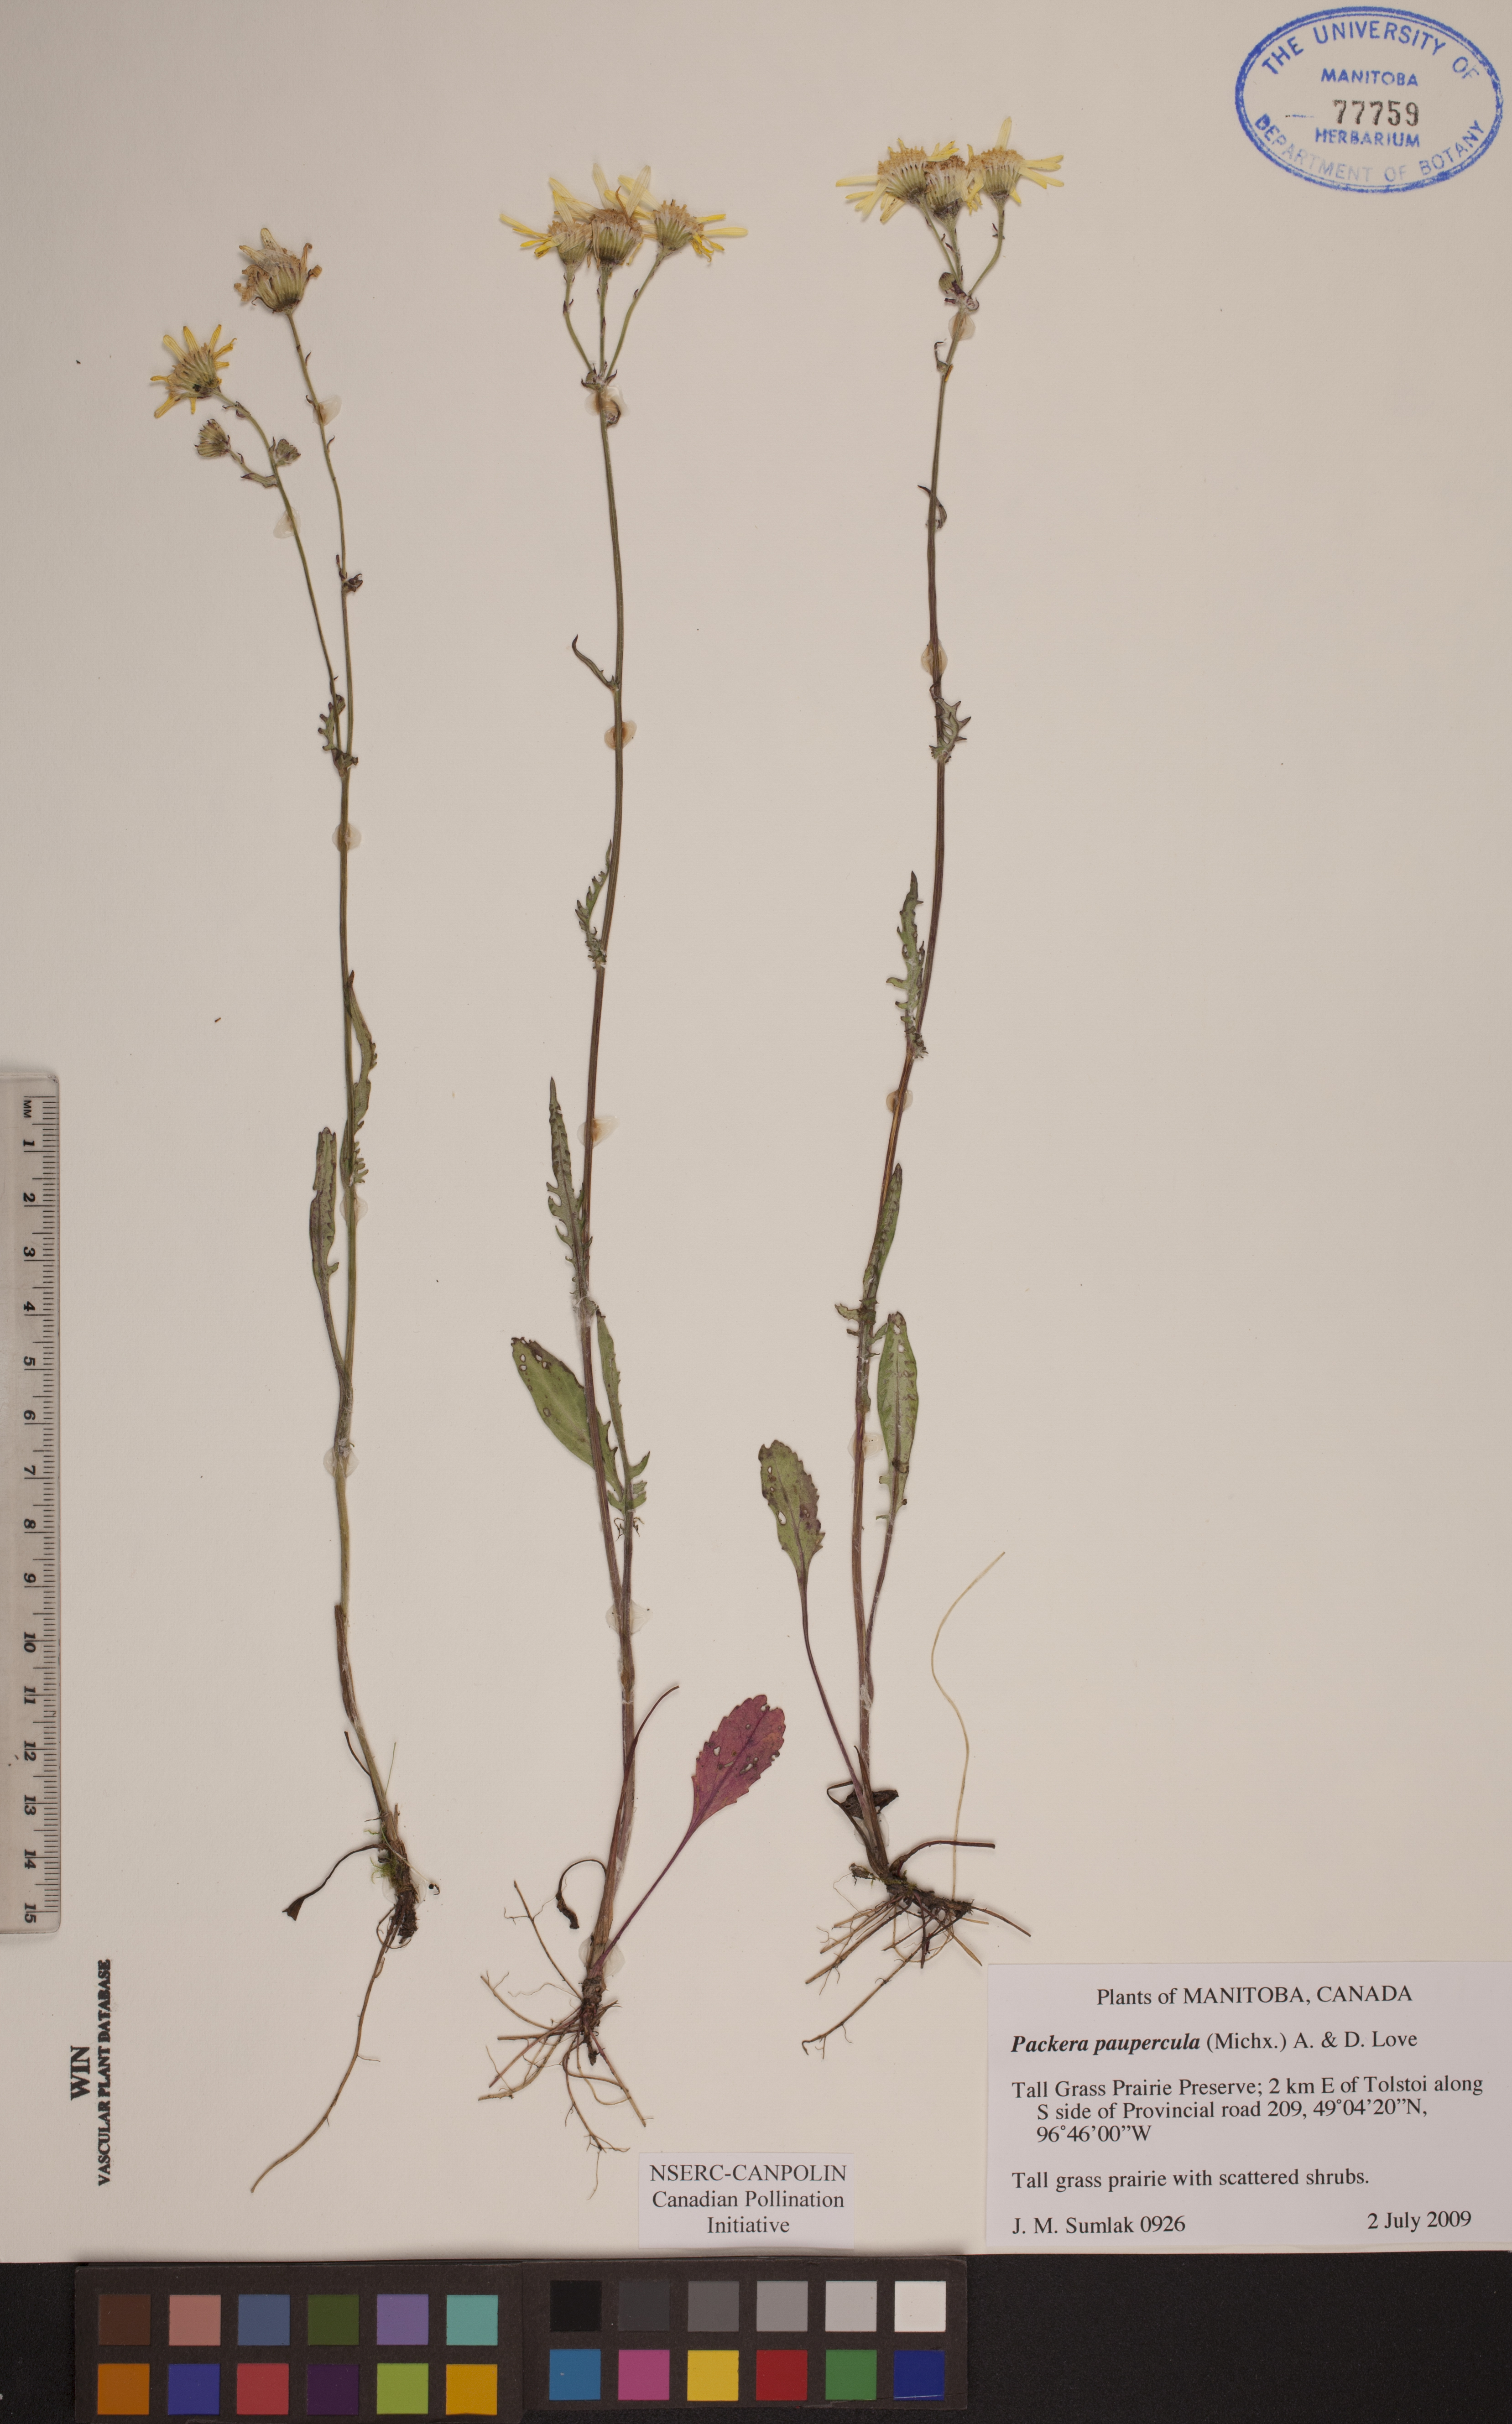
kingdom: Plantae
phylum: Tracheophyta
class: Magnoliopsida
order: Asterales
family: Asteraceae
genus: Packera
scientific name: Packera paupercula
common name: Balsam groundsel
